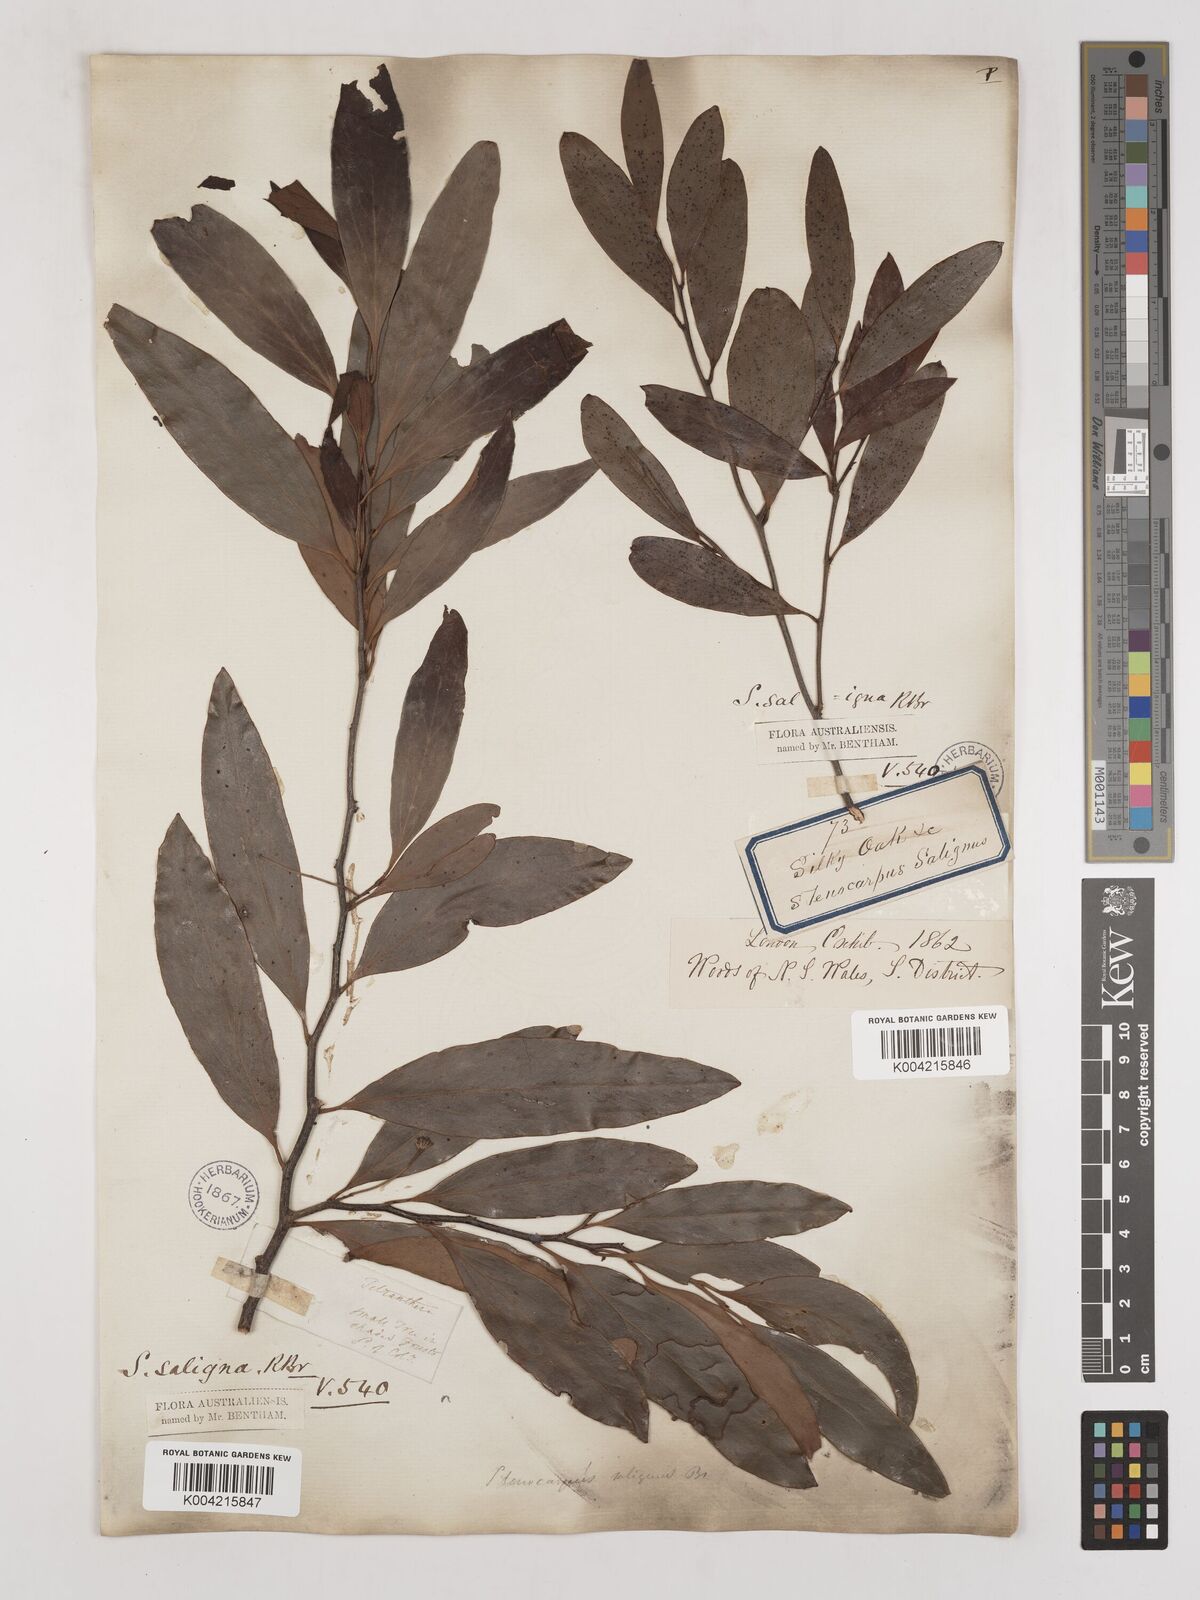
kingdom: Plantae
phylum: Tracheophyta
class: Magnoliopsida
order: Proteales
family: Proteaceae
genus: Stenocarpus
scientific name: Stenocarpus salignus
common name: Red silky-oak
